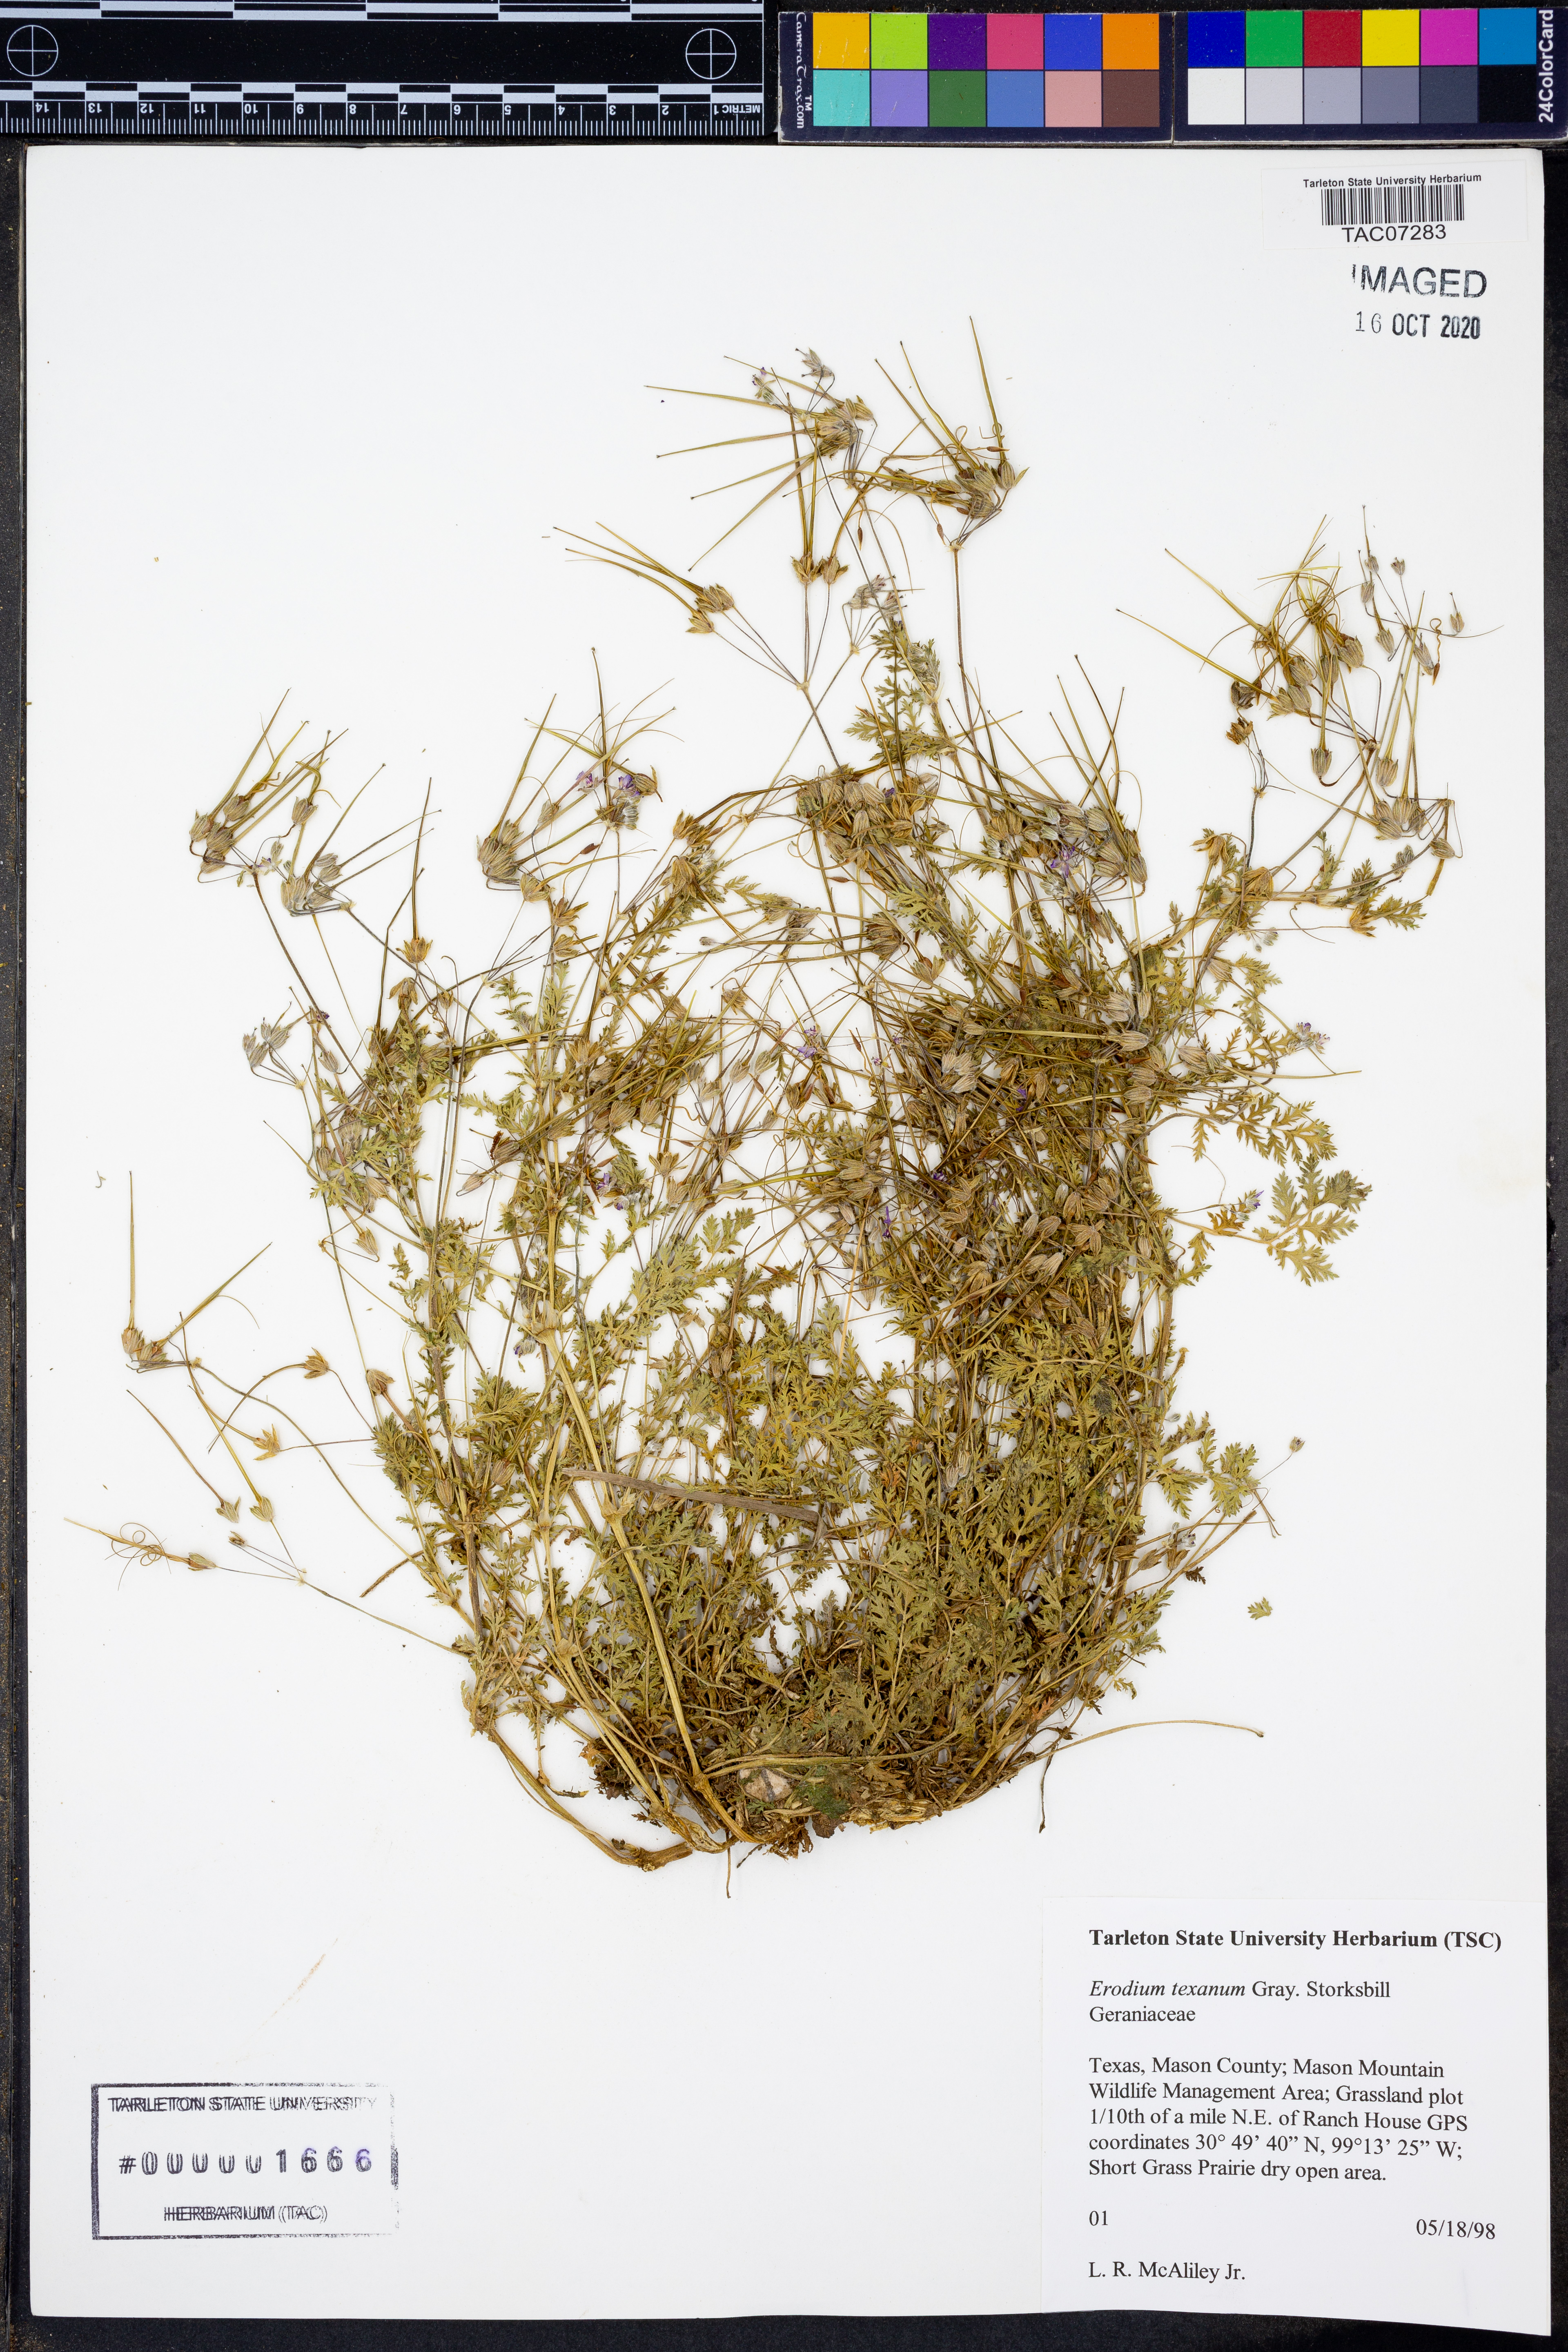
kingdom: Plantae
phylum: Tracheophyta
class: Magnoliopsida
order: Geraniales
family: Geraniaceae
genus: Erodium
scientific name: Erodium texanum
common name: Texas stork's-bill
